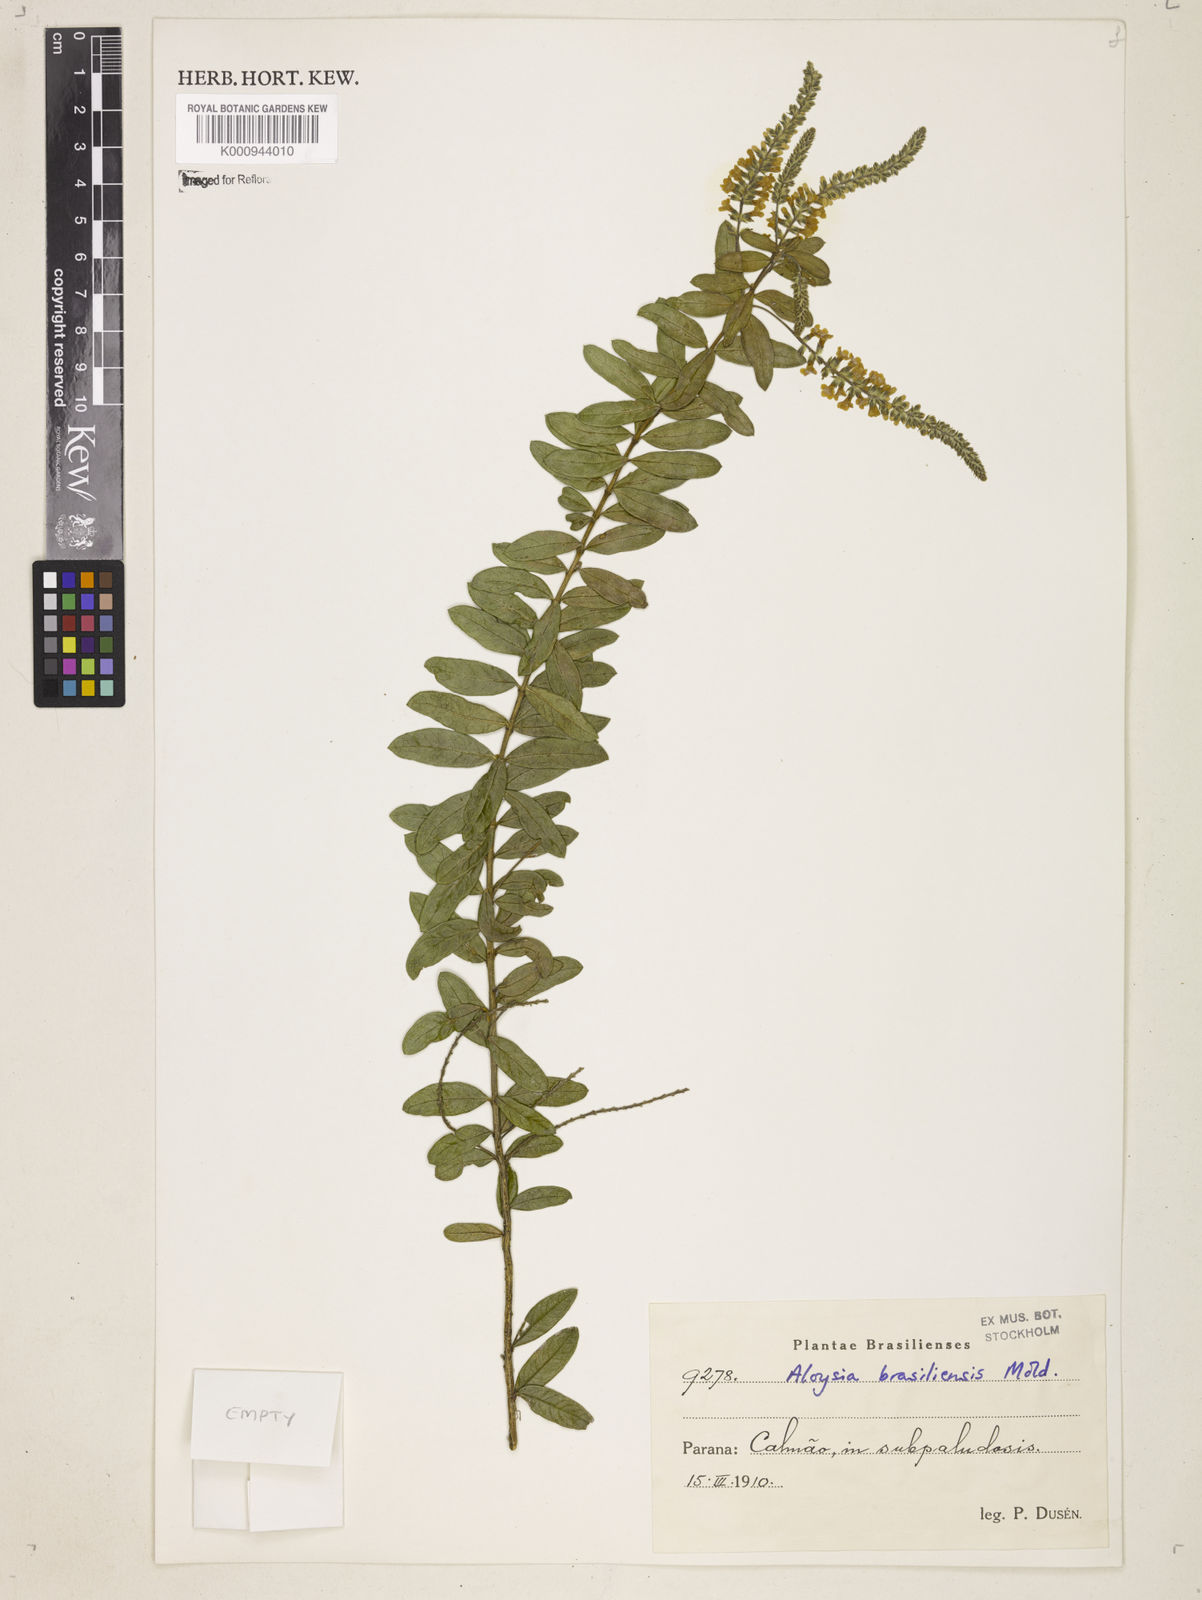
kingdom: Plantae
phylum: Tracheophyta
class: Magnoliopsida
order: Lamiales
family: Verbenaceae
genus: Aloysia
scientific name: Aloysia gratissima
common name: Common bee-brush
